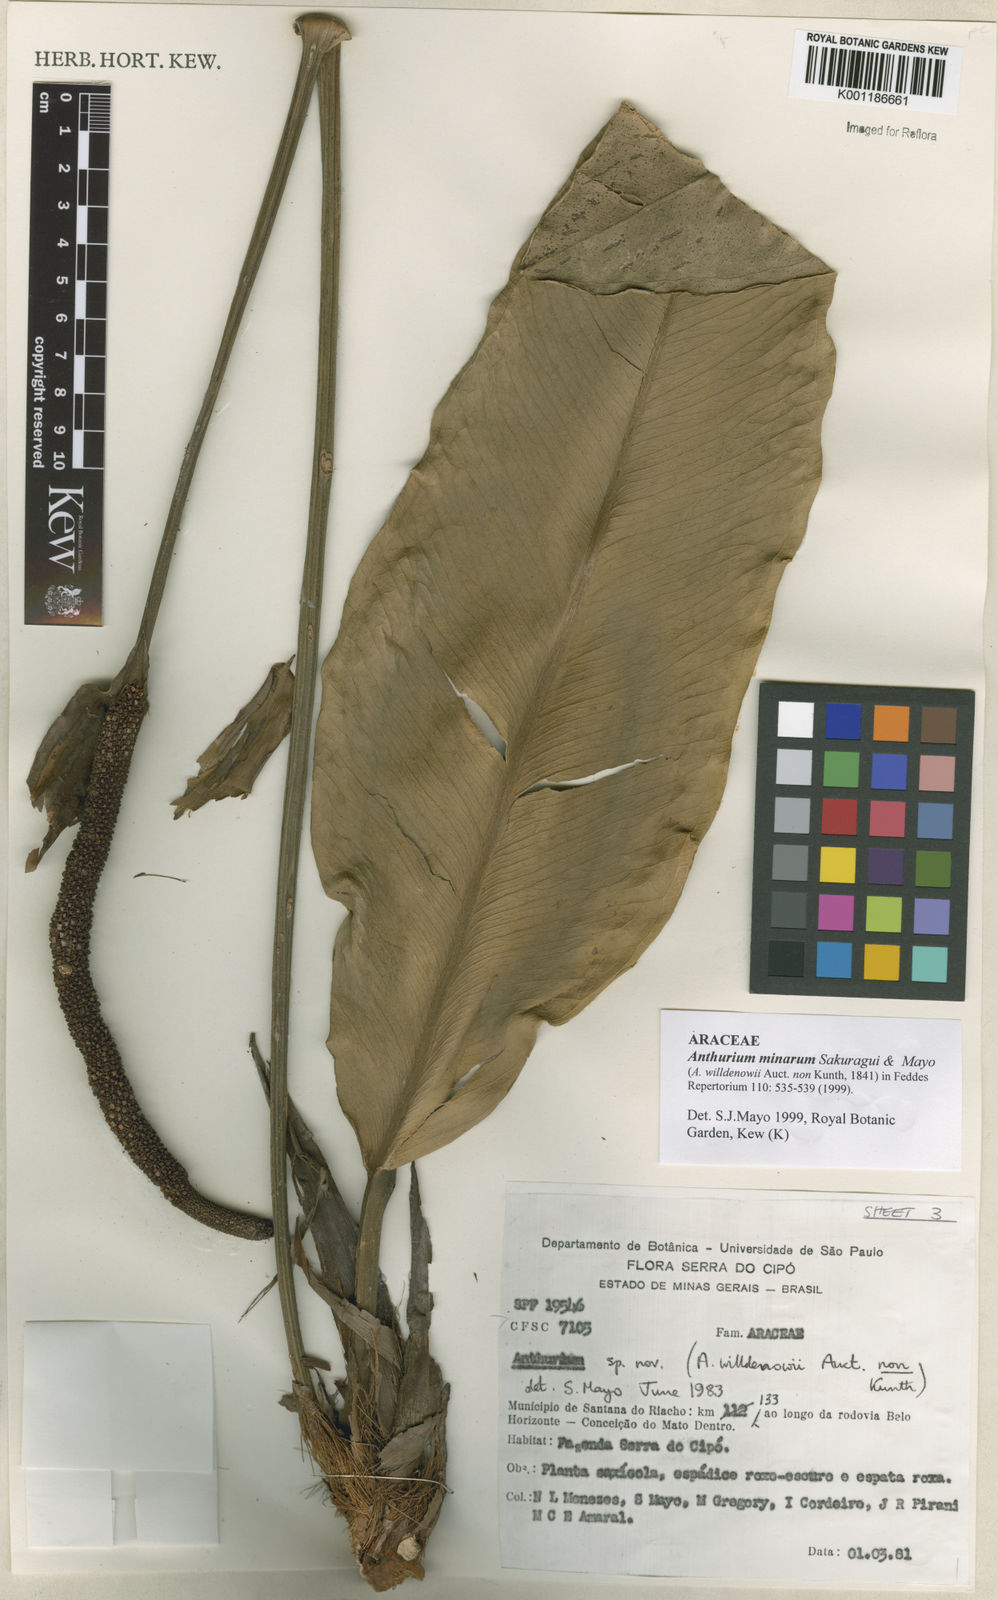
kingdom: Plantae
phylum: Tracheophyta
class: Liliopsida
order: Alismatales
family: Araceae
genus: Anthurium
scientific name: Anthurium minarum
